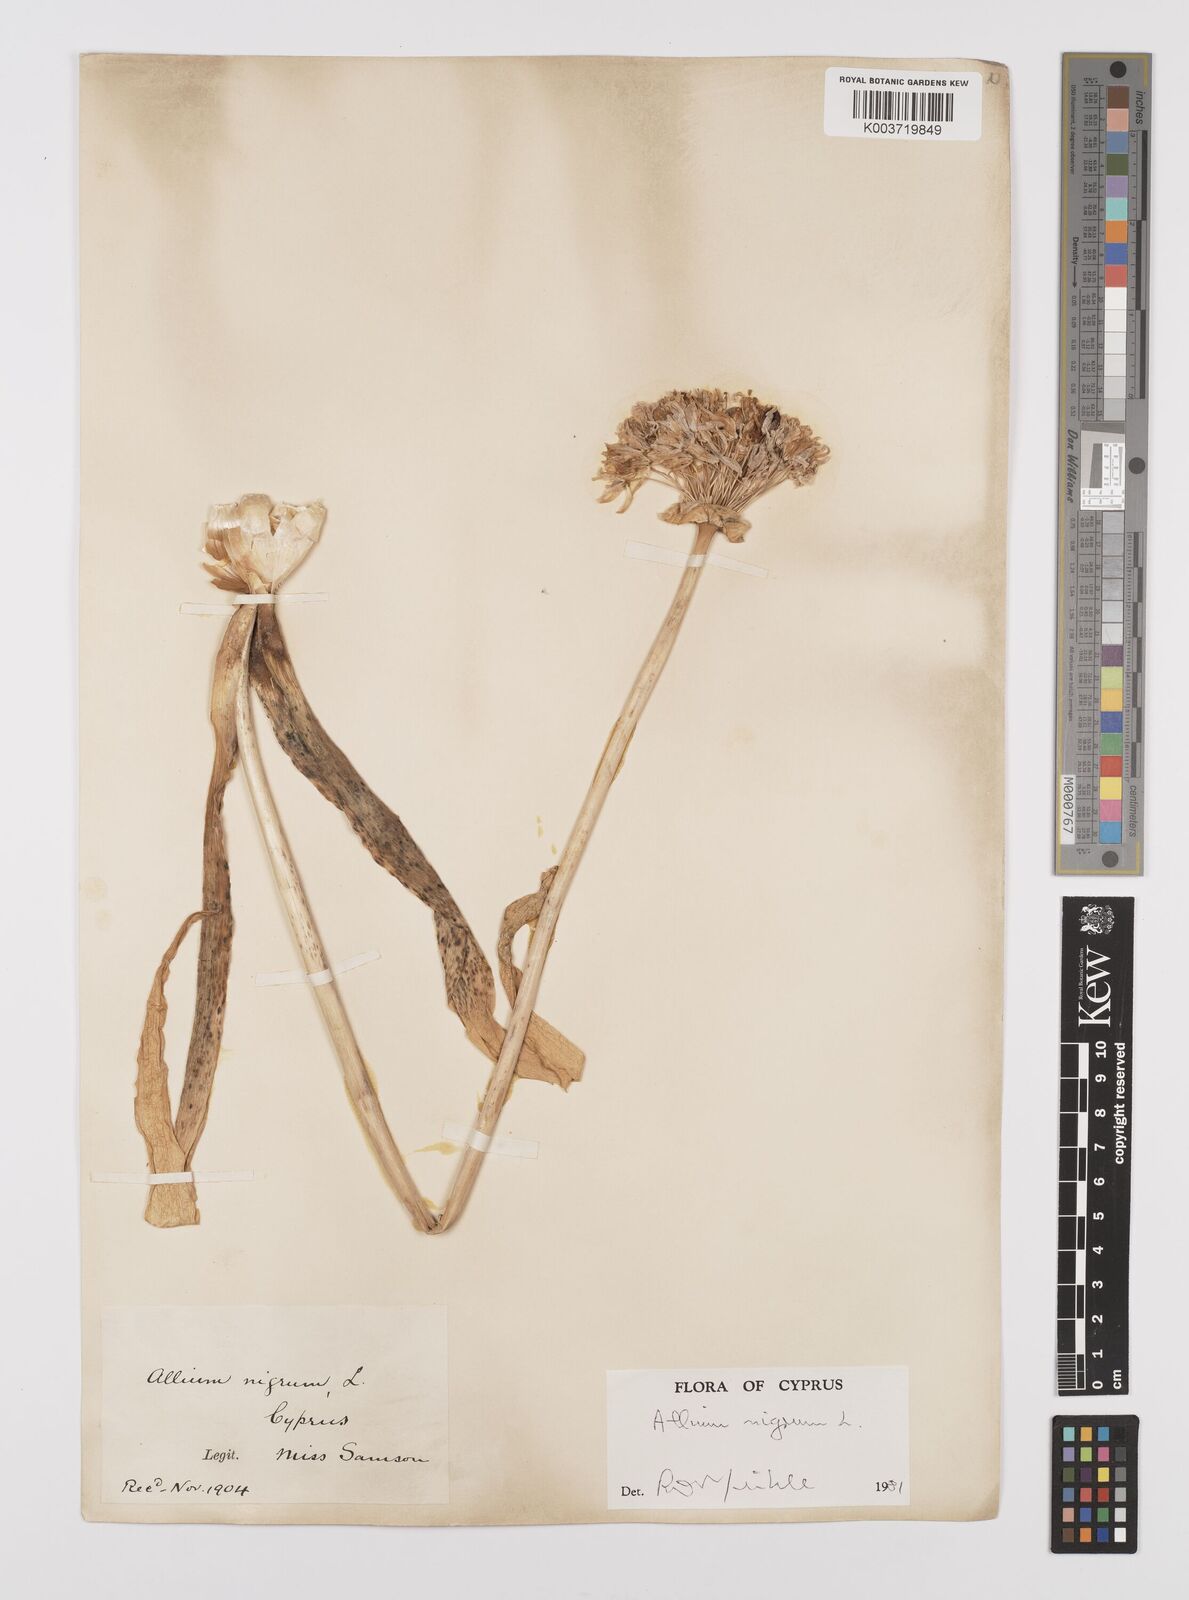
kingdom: Plantae
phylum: Tracheophyta
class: Liliopsida
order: Asparagales
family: Amaryllidaceae
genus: Allium
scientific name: Allium nigrum
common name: Black garlic
